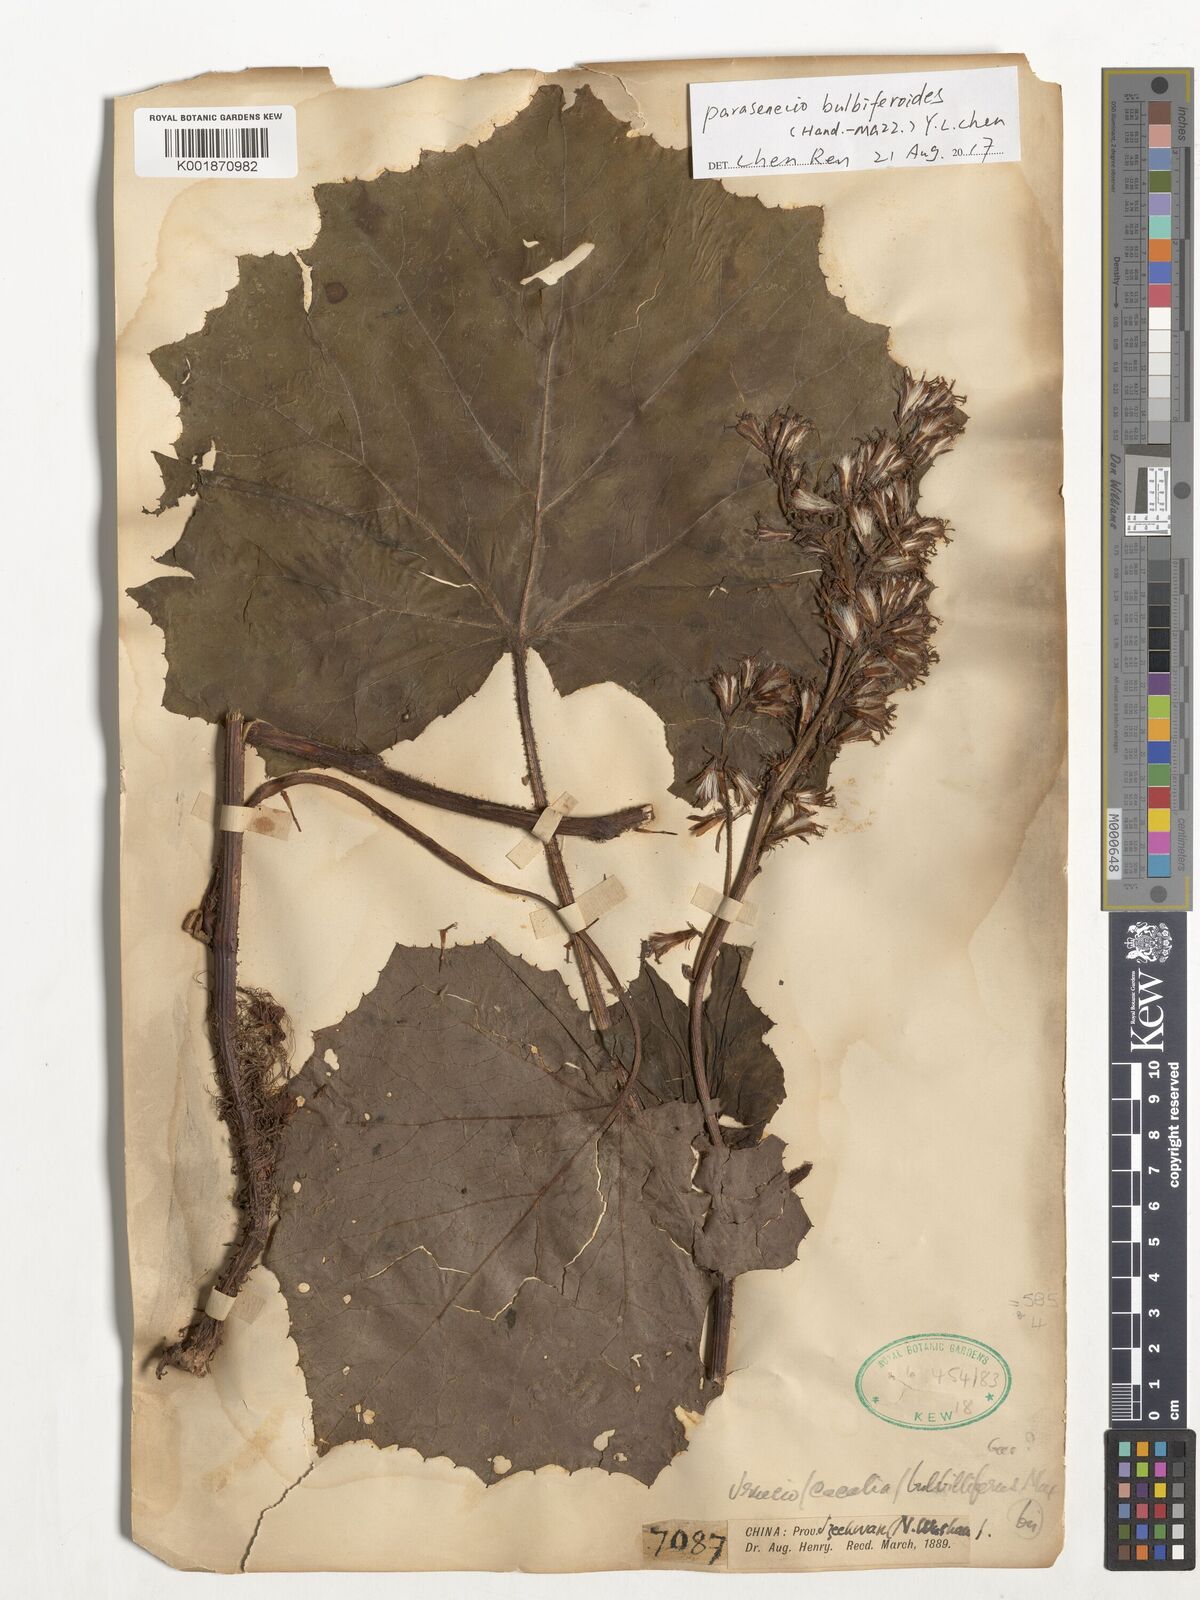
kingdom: Plantae
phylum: Tracheophyta
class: Magnoliopsida
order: Asterales
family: Asteraceae
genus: Parasenecio
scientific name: Parasenecio bulbiferoides
